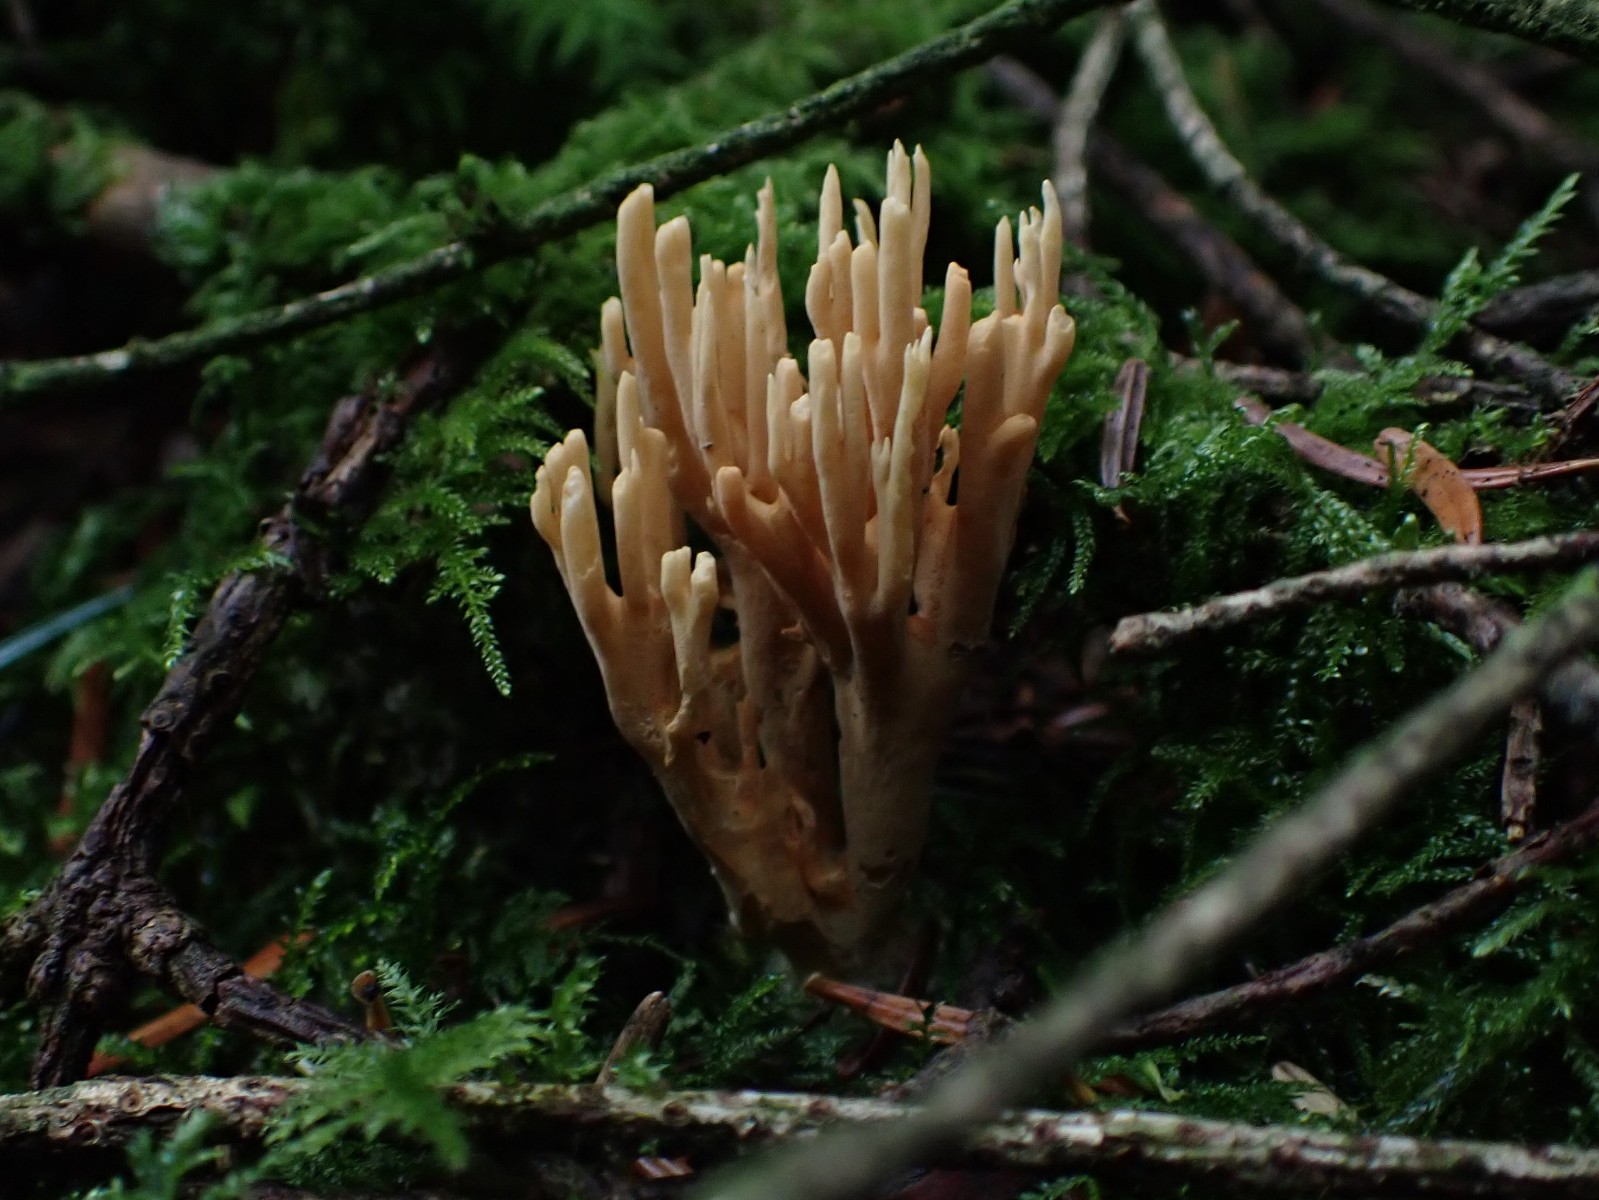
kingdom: Fungi
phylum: Basidiomycota
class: Agaricomycetes
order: Gomphales
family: Gomphaceae
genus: Phaeoclavulina
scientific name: Phaeoclavulina eumorpha
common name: gran-koralsvamp
